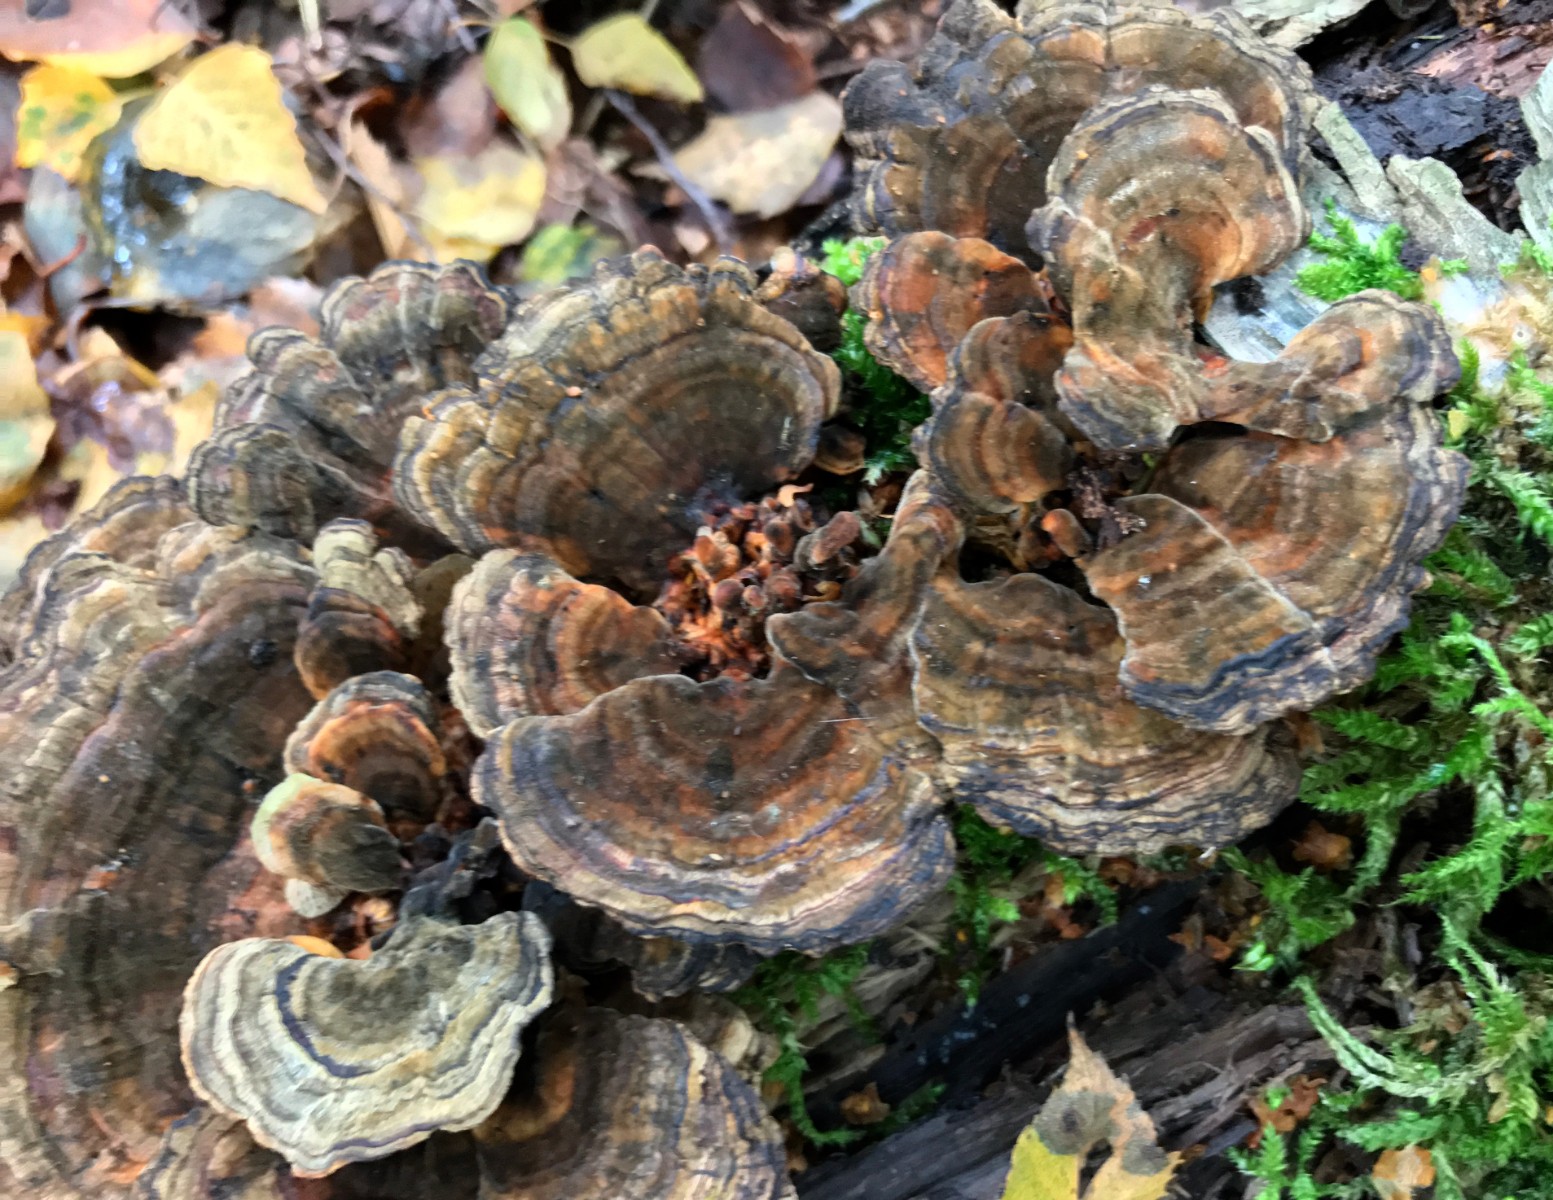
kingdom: Fungi
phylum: Basidiomycota
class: Agaricomycetes
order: Polyporales
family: Polyporaceae
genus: Trametes
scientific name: Trametes versicolor
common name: broget læderporesvamp
